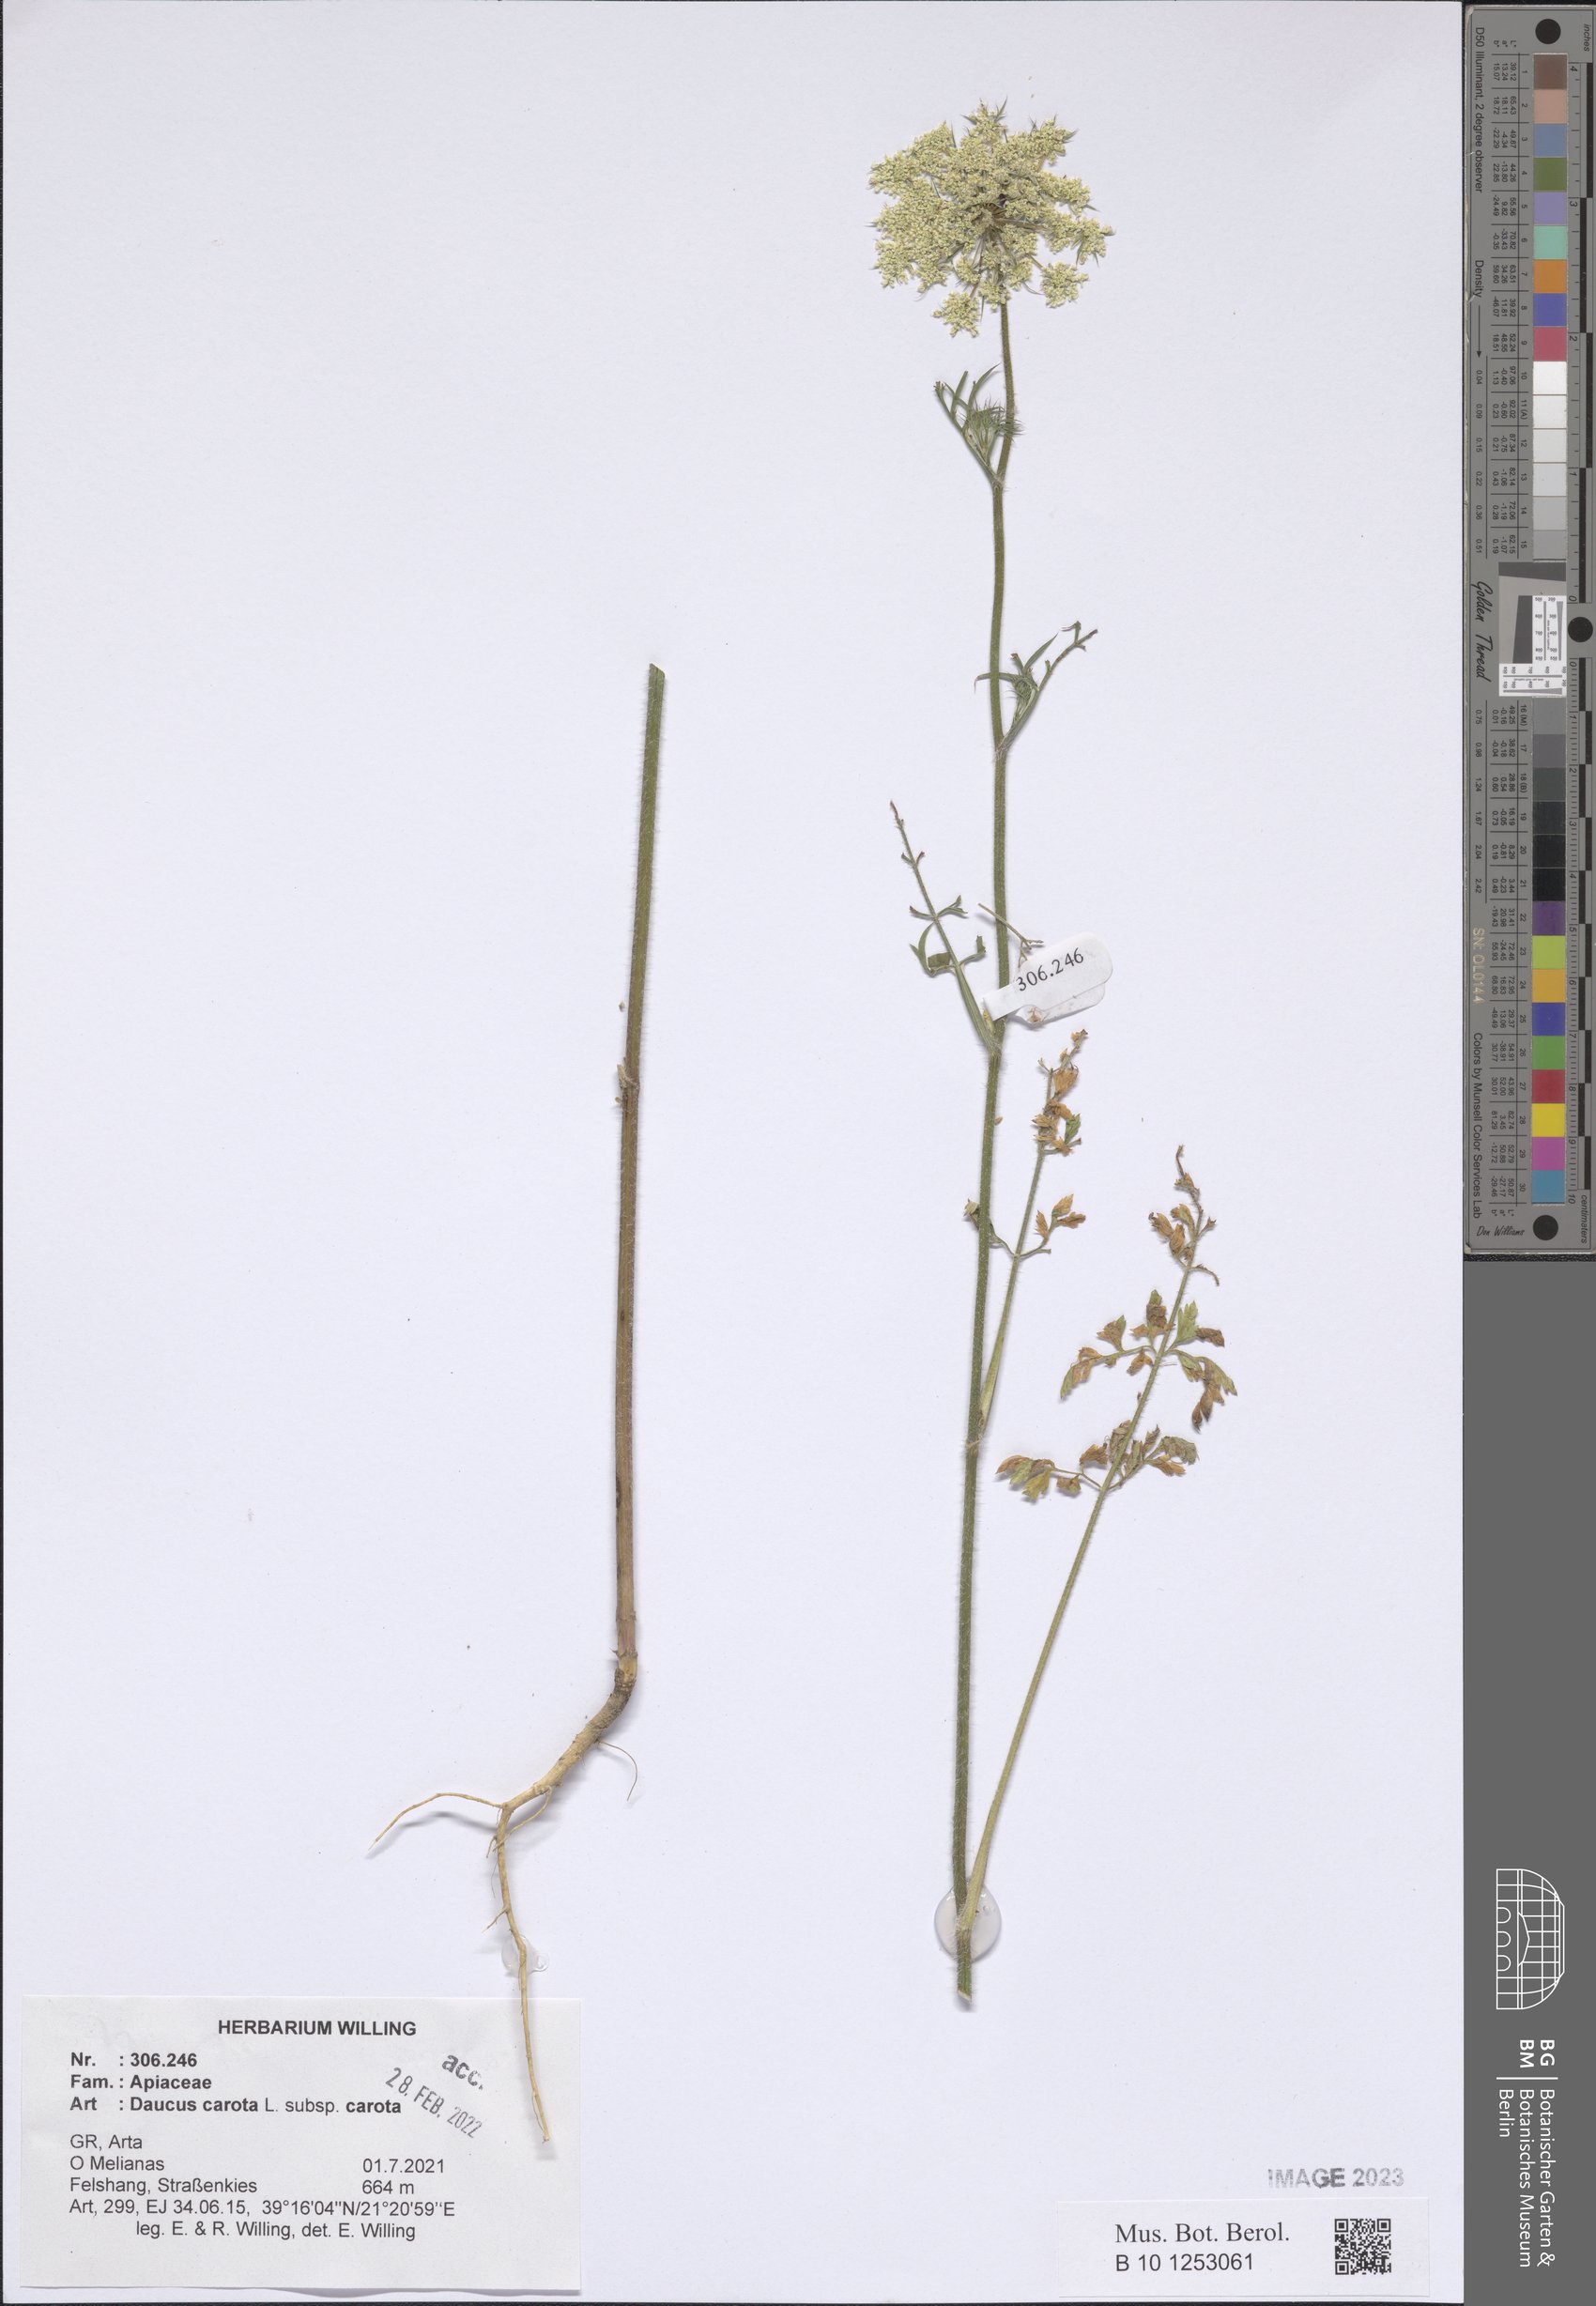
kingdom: Plantae
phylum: Tracheophyta
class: Magnoliopsida
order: Apiales
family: Apiaceae
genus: Daucus
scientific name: Daucus carota
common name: Wild carrot
